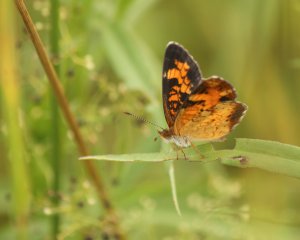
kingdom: Animalia
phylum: Arthropoda
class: Insecta
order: Lepidoptera
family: Nymphalidae
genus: Phyciodes
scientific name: Phyciodes tharos
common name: Northern Crescent
